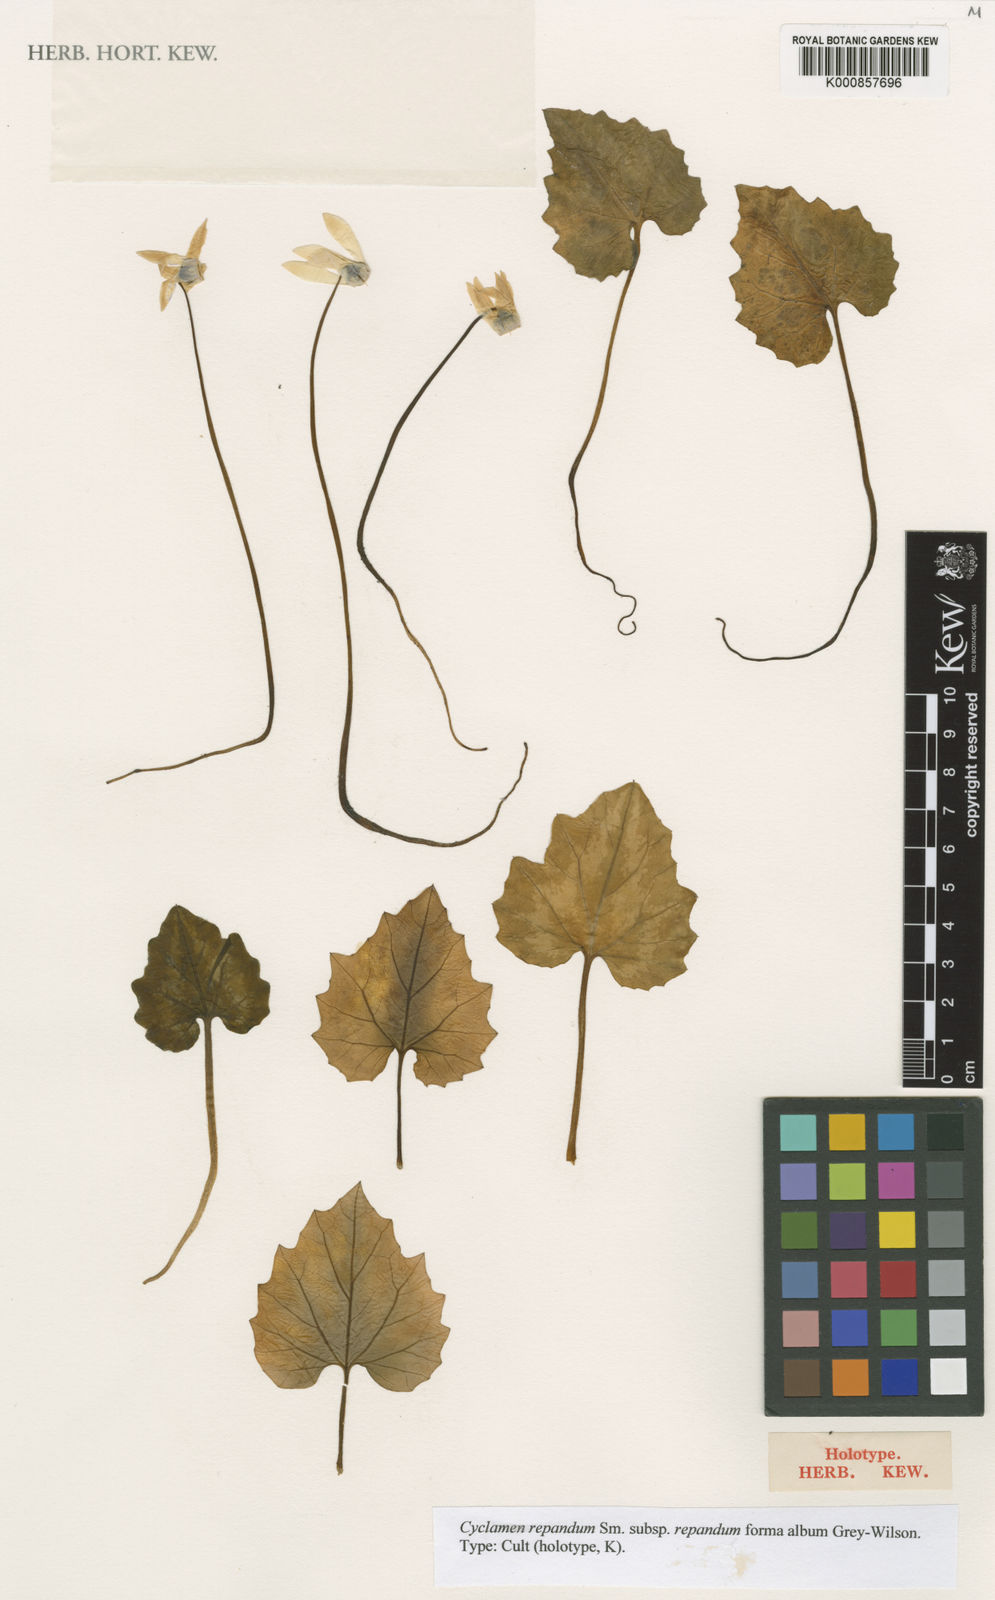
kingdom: Plantae
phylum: Tracheophyta
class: Magnoliopsida
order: Ericales
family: Primulaceae
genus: Cyclamen
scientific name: Cyclamen repandum
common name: Spring sowbread
